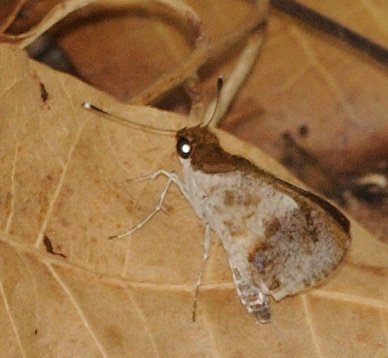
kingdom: Animalia
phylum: Arthropoda
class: Insecta
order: Lepidoptera
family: Hesperiidae
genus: Acleros
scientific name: Acleros mackenii
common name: Macken's Dart
